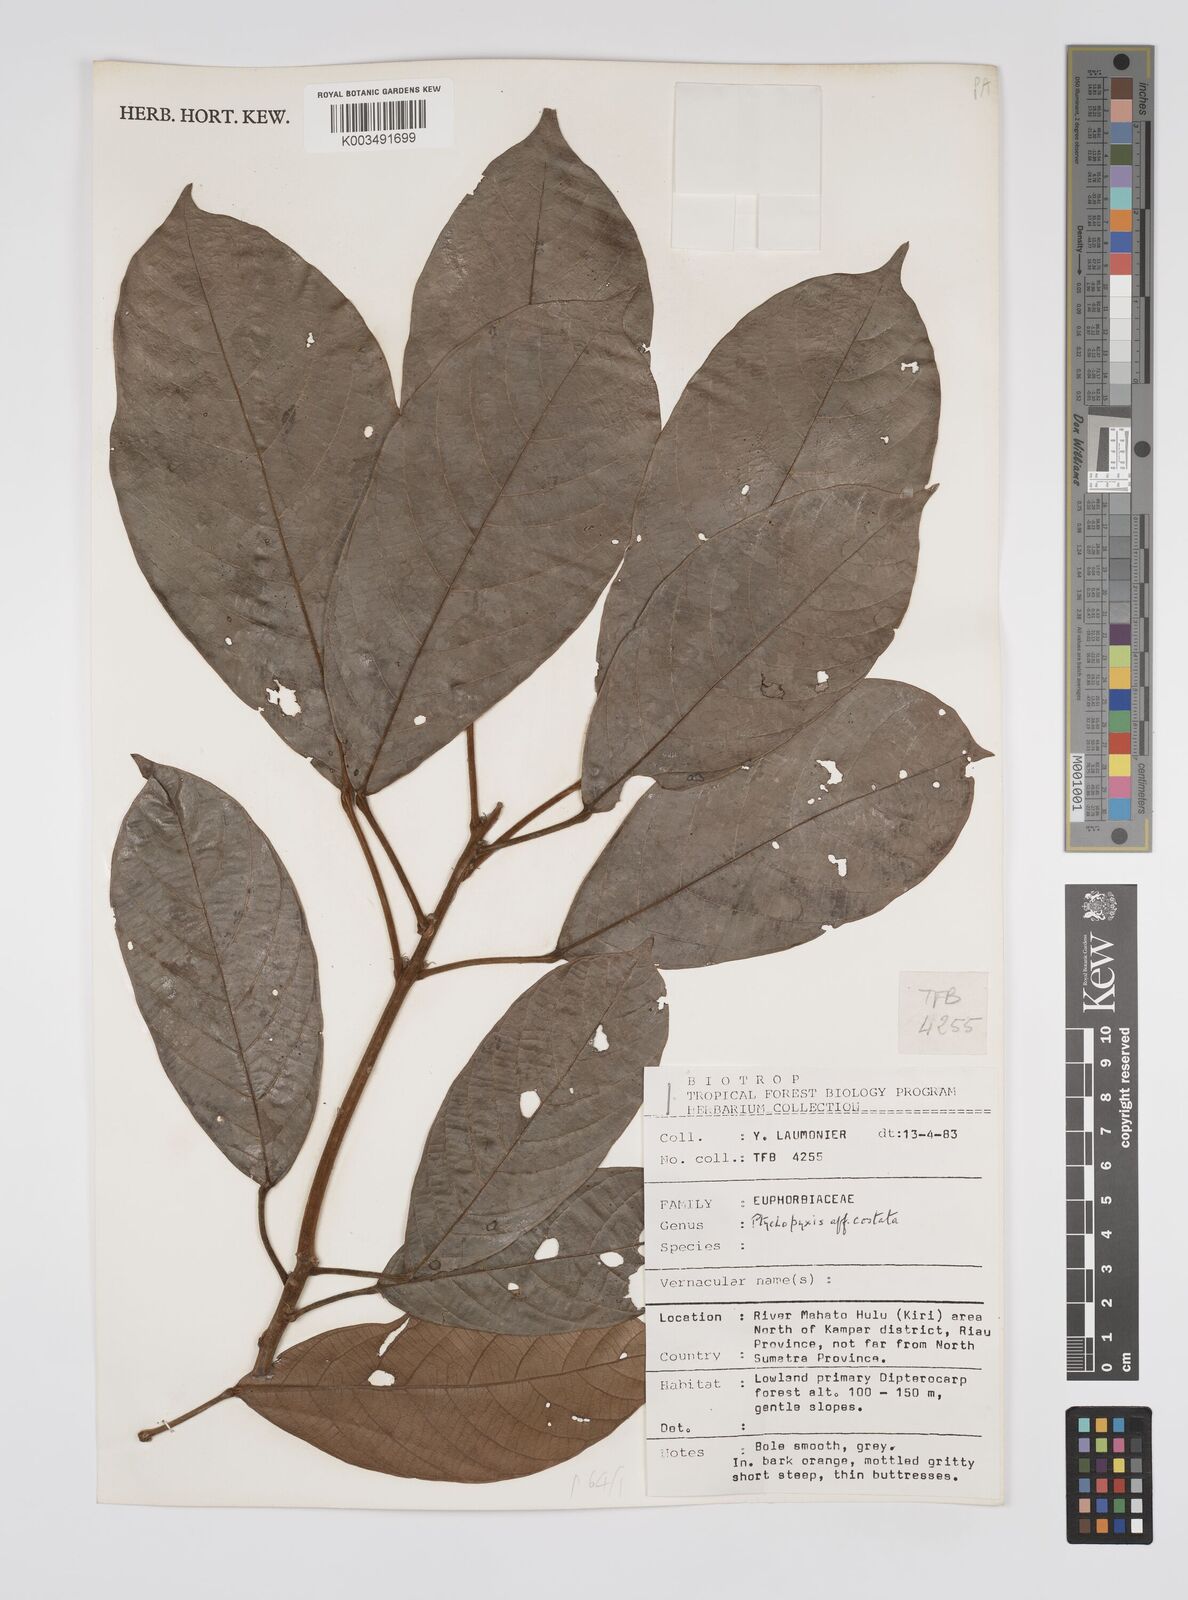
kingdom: Plantae
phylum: Tracheophyta
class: Magnoliopsida
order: Malpighiales
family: Euphorbiaceae
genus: Ptychopyxis
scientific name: Ptychopyxis costata
